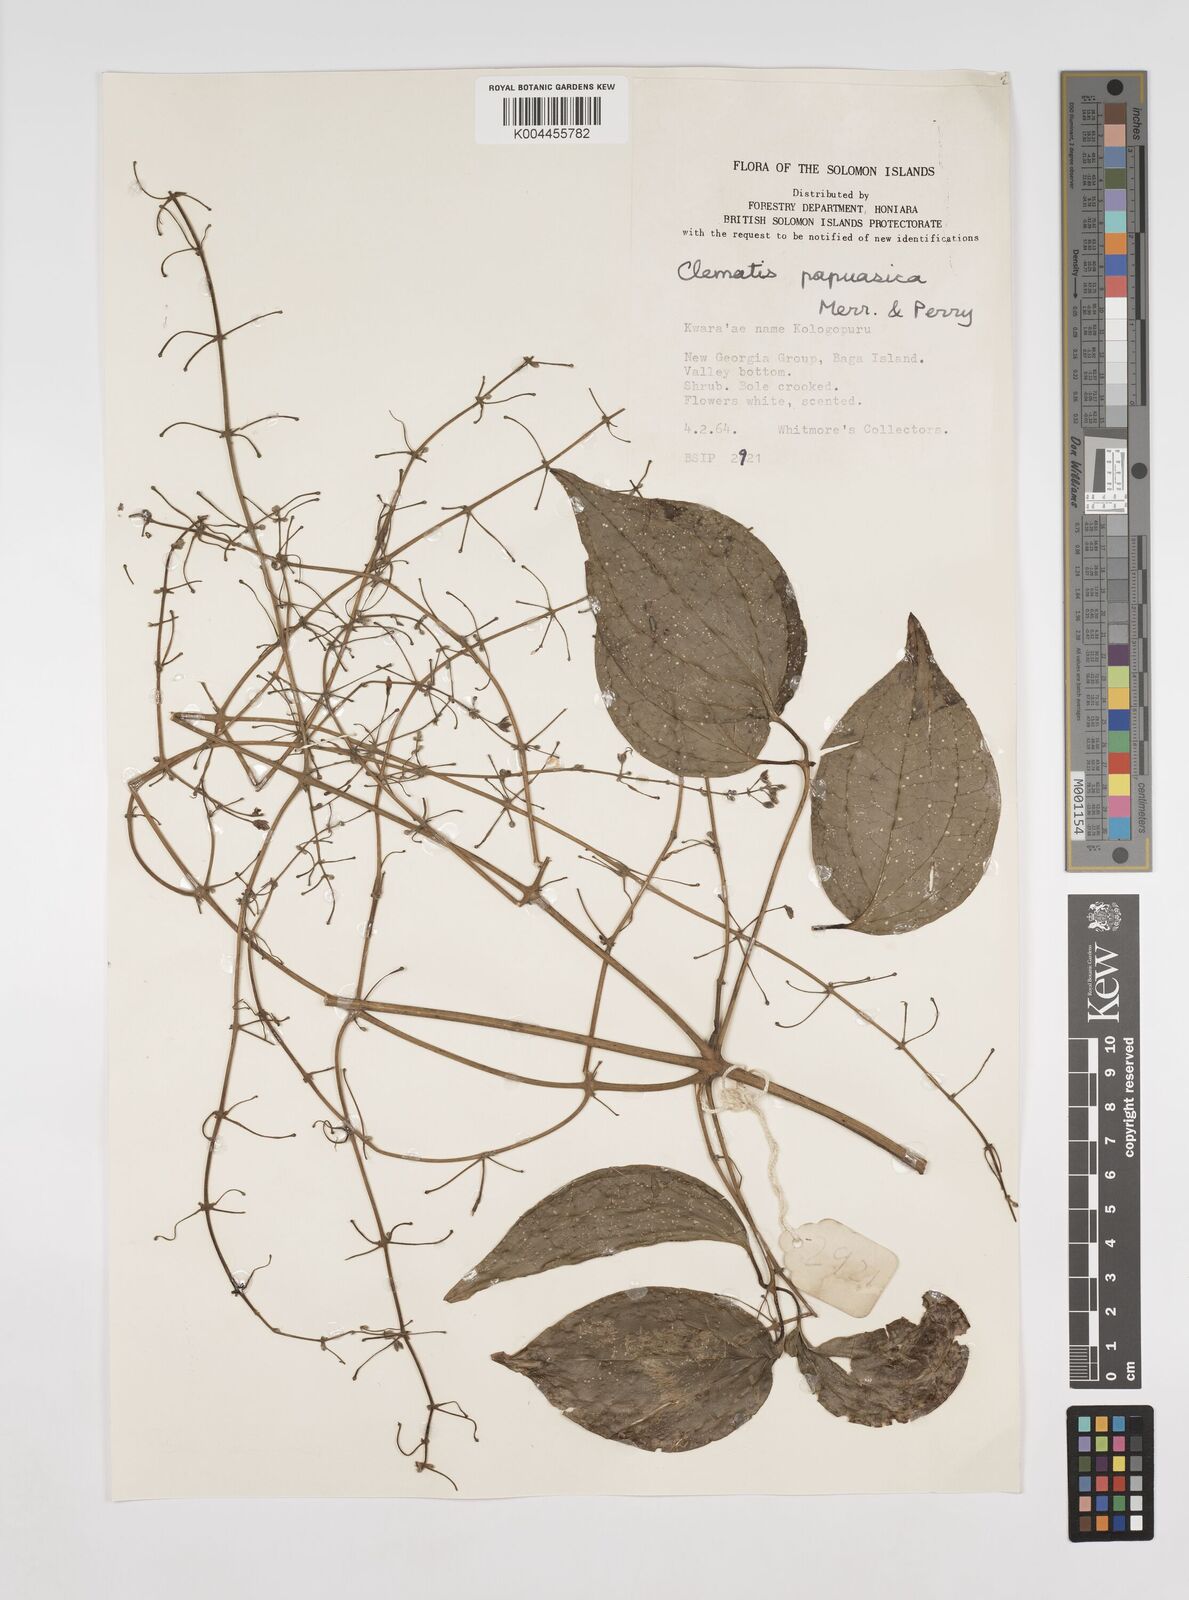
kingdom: Plantae
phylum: Tracheophyta
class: Magnoliopsida
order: Ranunculales
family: Ranunculaceae
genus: Clematis
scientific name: Clematis papuasica
